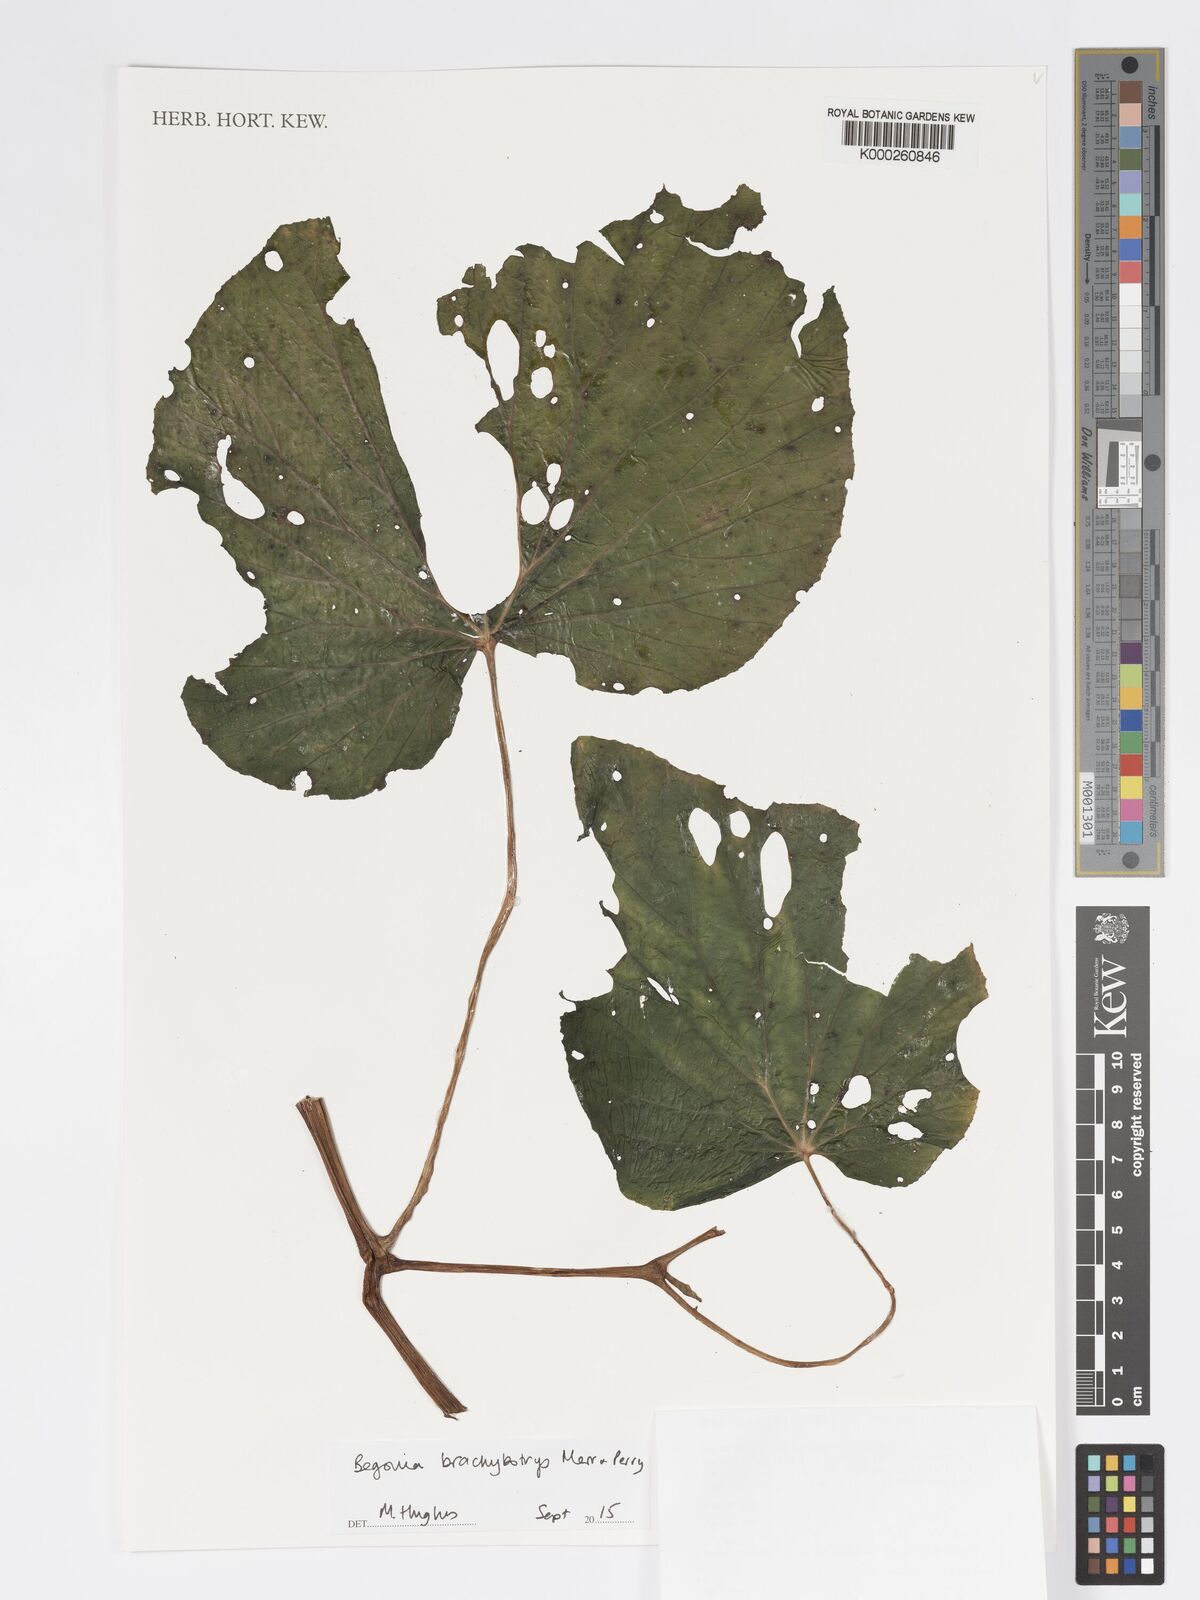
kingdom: Plantae
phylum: Tracheophyta
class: Magnoliopsida
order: Cucurbitales
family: Begoniaceae
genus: Begonia
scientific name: Begonia brachybotrys
